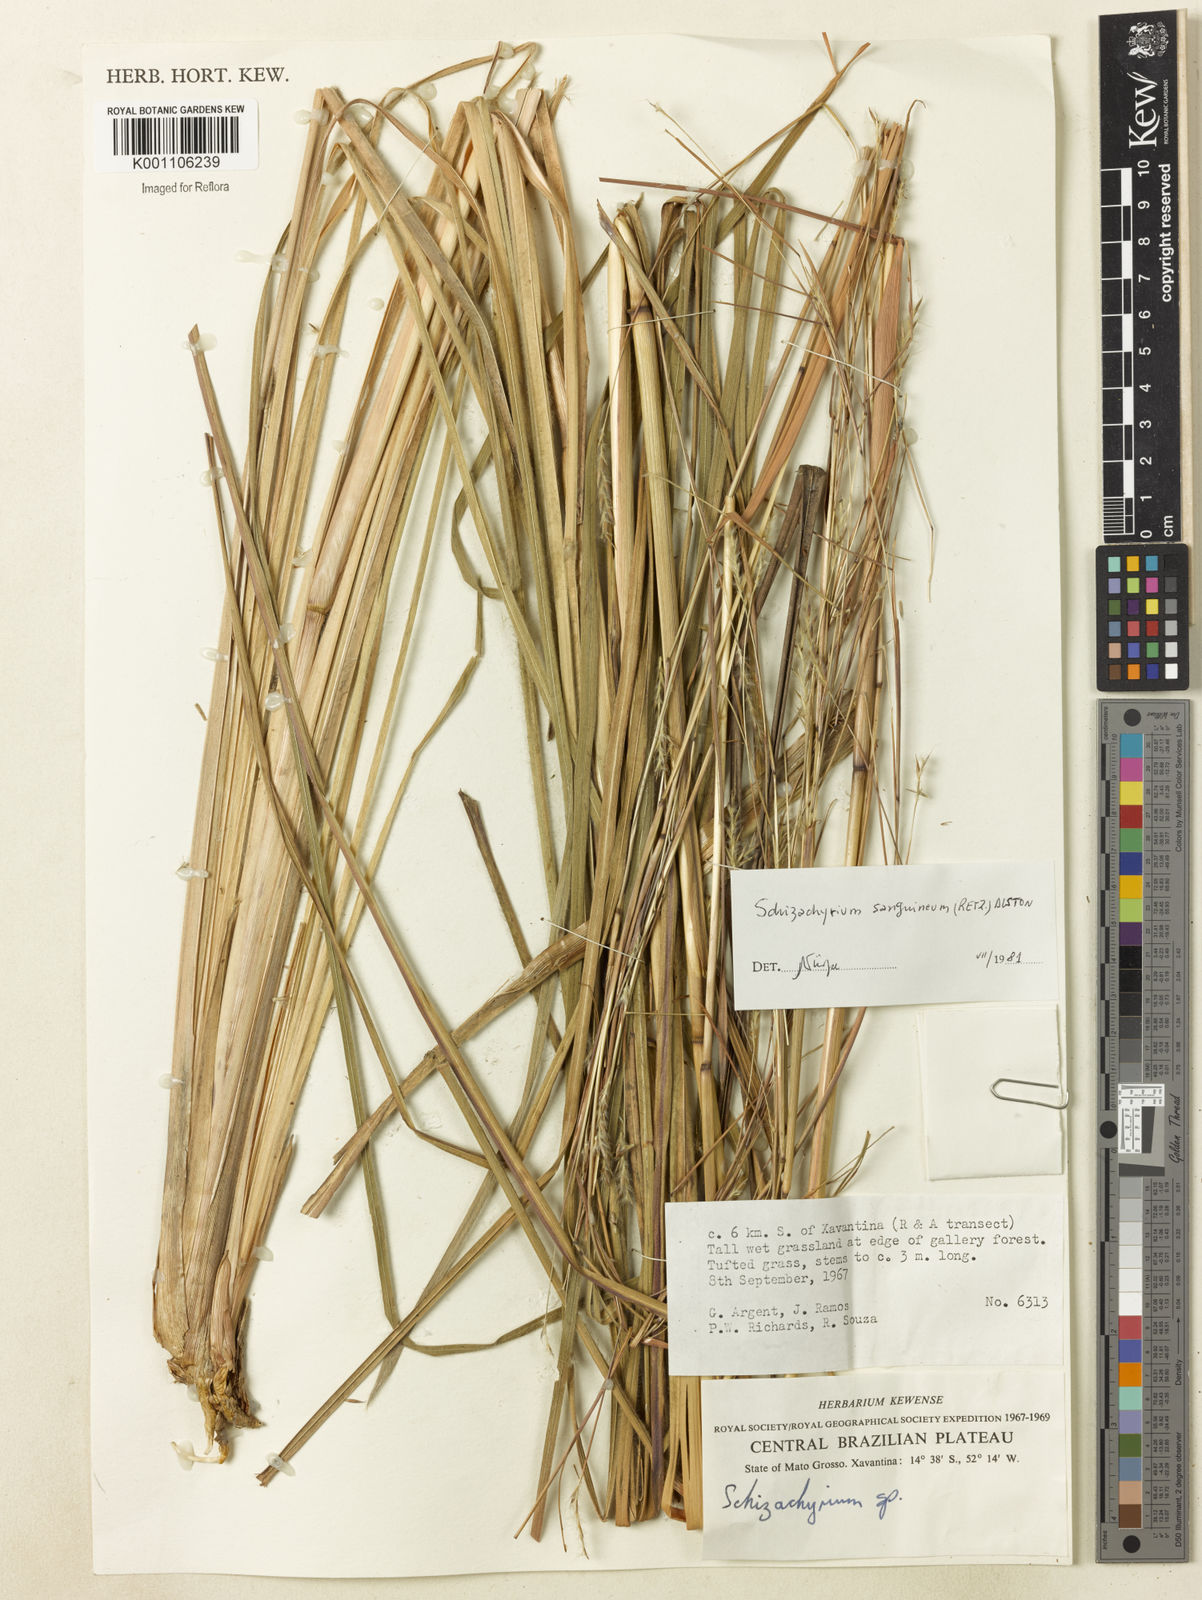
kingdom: Plantae
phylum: Tracheophyta
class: Liliopsida
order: Poales
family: Poaceae
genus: Andropogon
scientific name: Andropogon
